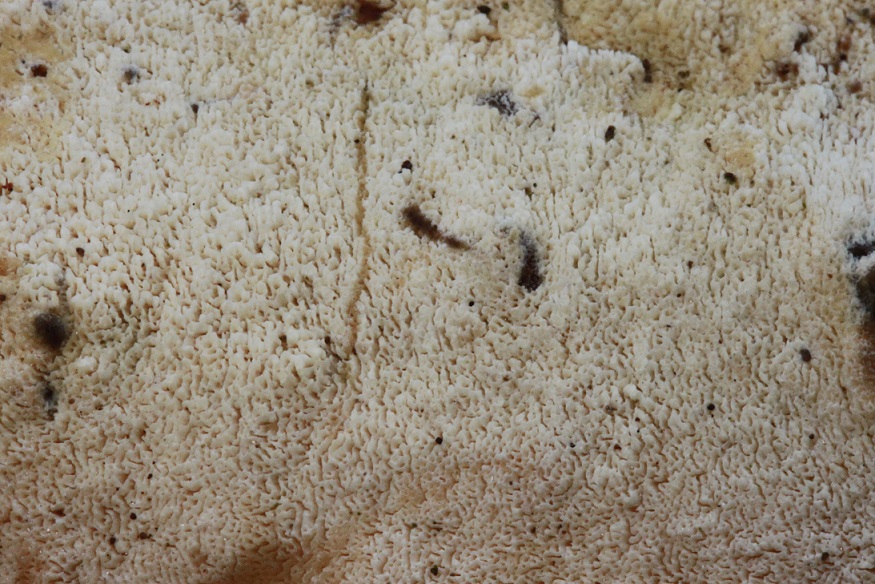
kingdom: Fungi
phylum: Basidiomycota
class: Agaricomycetes
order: Hymenochaetales
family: Schizoporaceae
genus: Xylodon
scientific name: Xylodon subtropicus
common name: labyrint-tandsvamp
